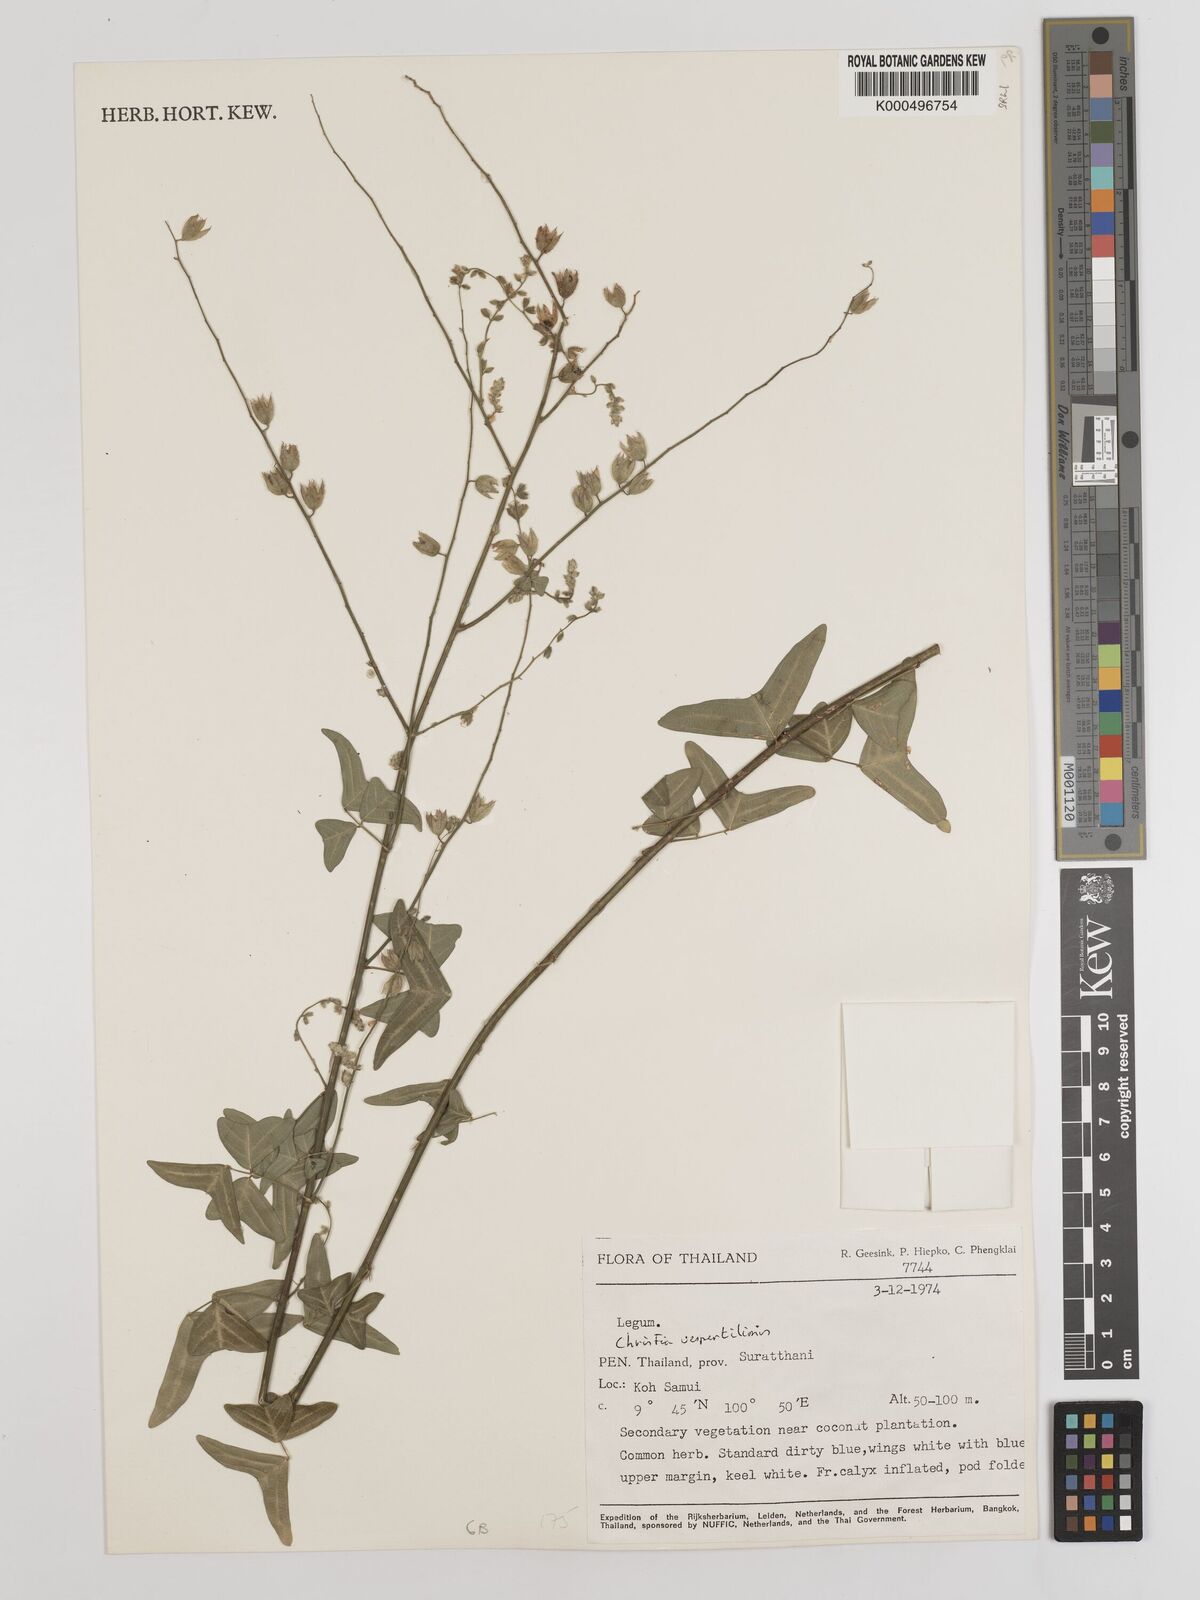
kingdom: Plantae
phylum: Tracheophyta
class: Magnoliopsida
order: Fabales
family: Fabaceae
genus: Christia
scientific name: Christia vespertilionis
